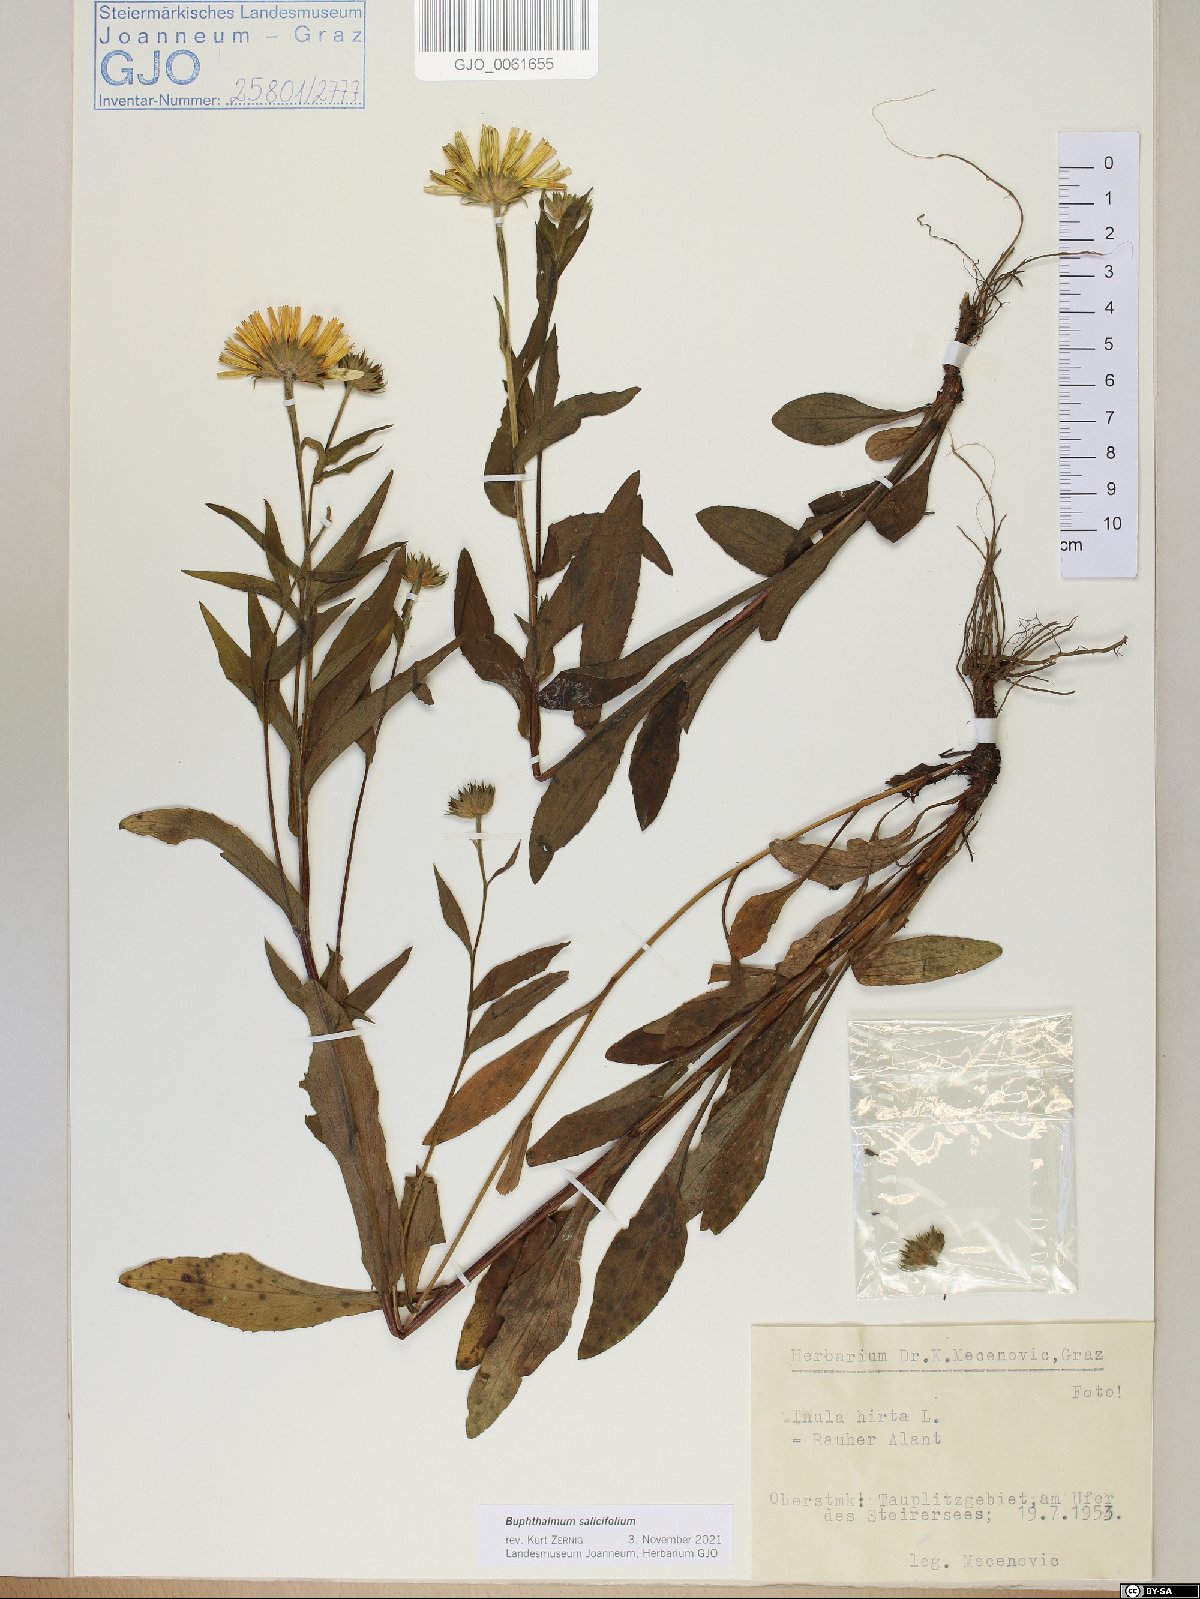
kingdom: Plantae
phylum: Tracheophyta
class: Magnoliopsida
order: Asterales
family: Asteraceae
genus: Buphthalmum
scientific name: Buphthalmum salicifolium
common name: Willow-leaved yellow-oxeye
